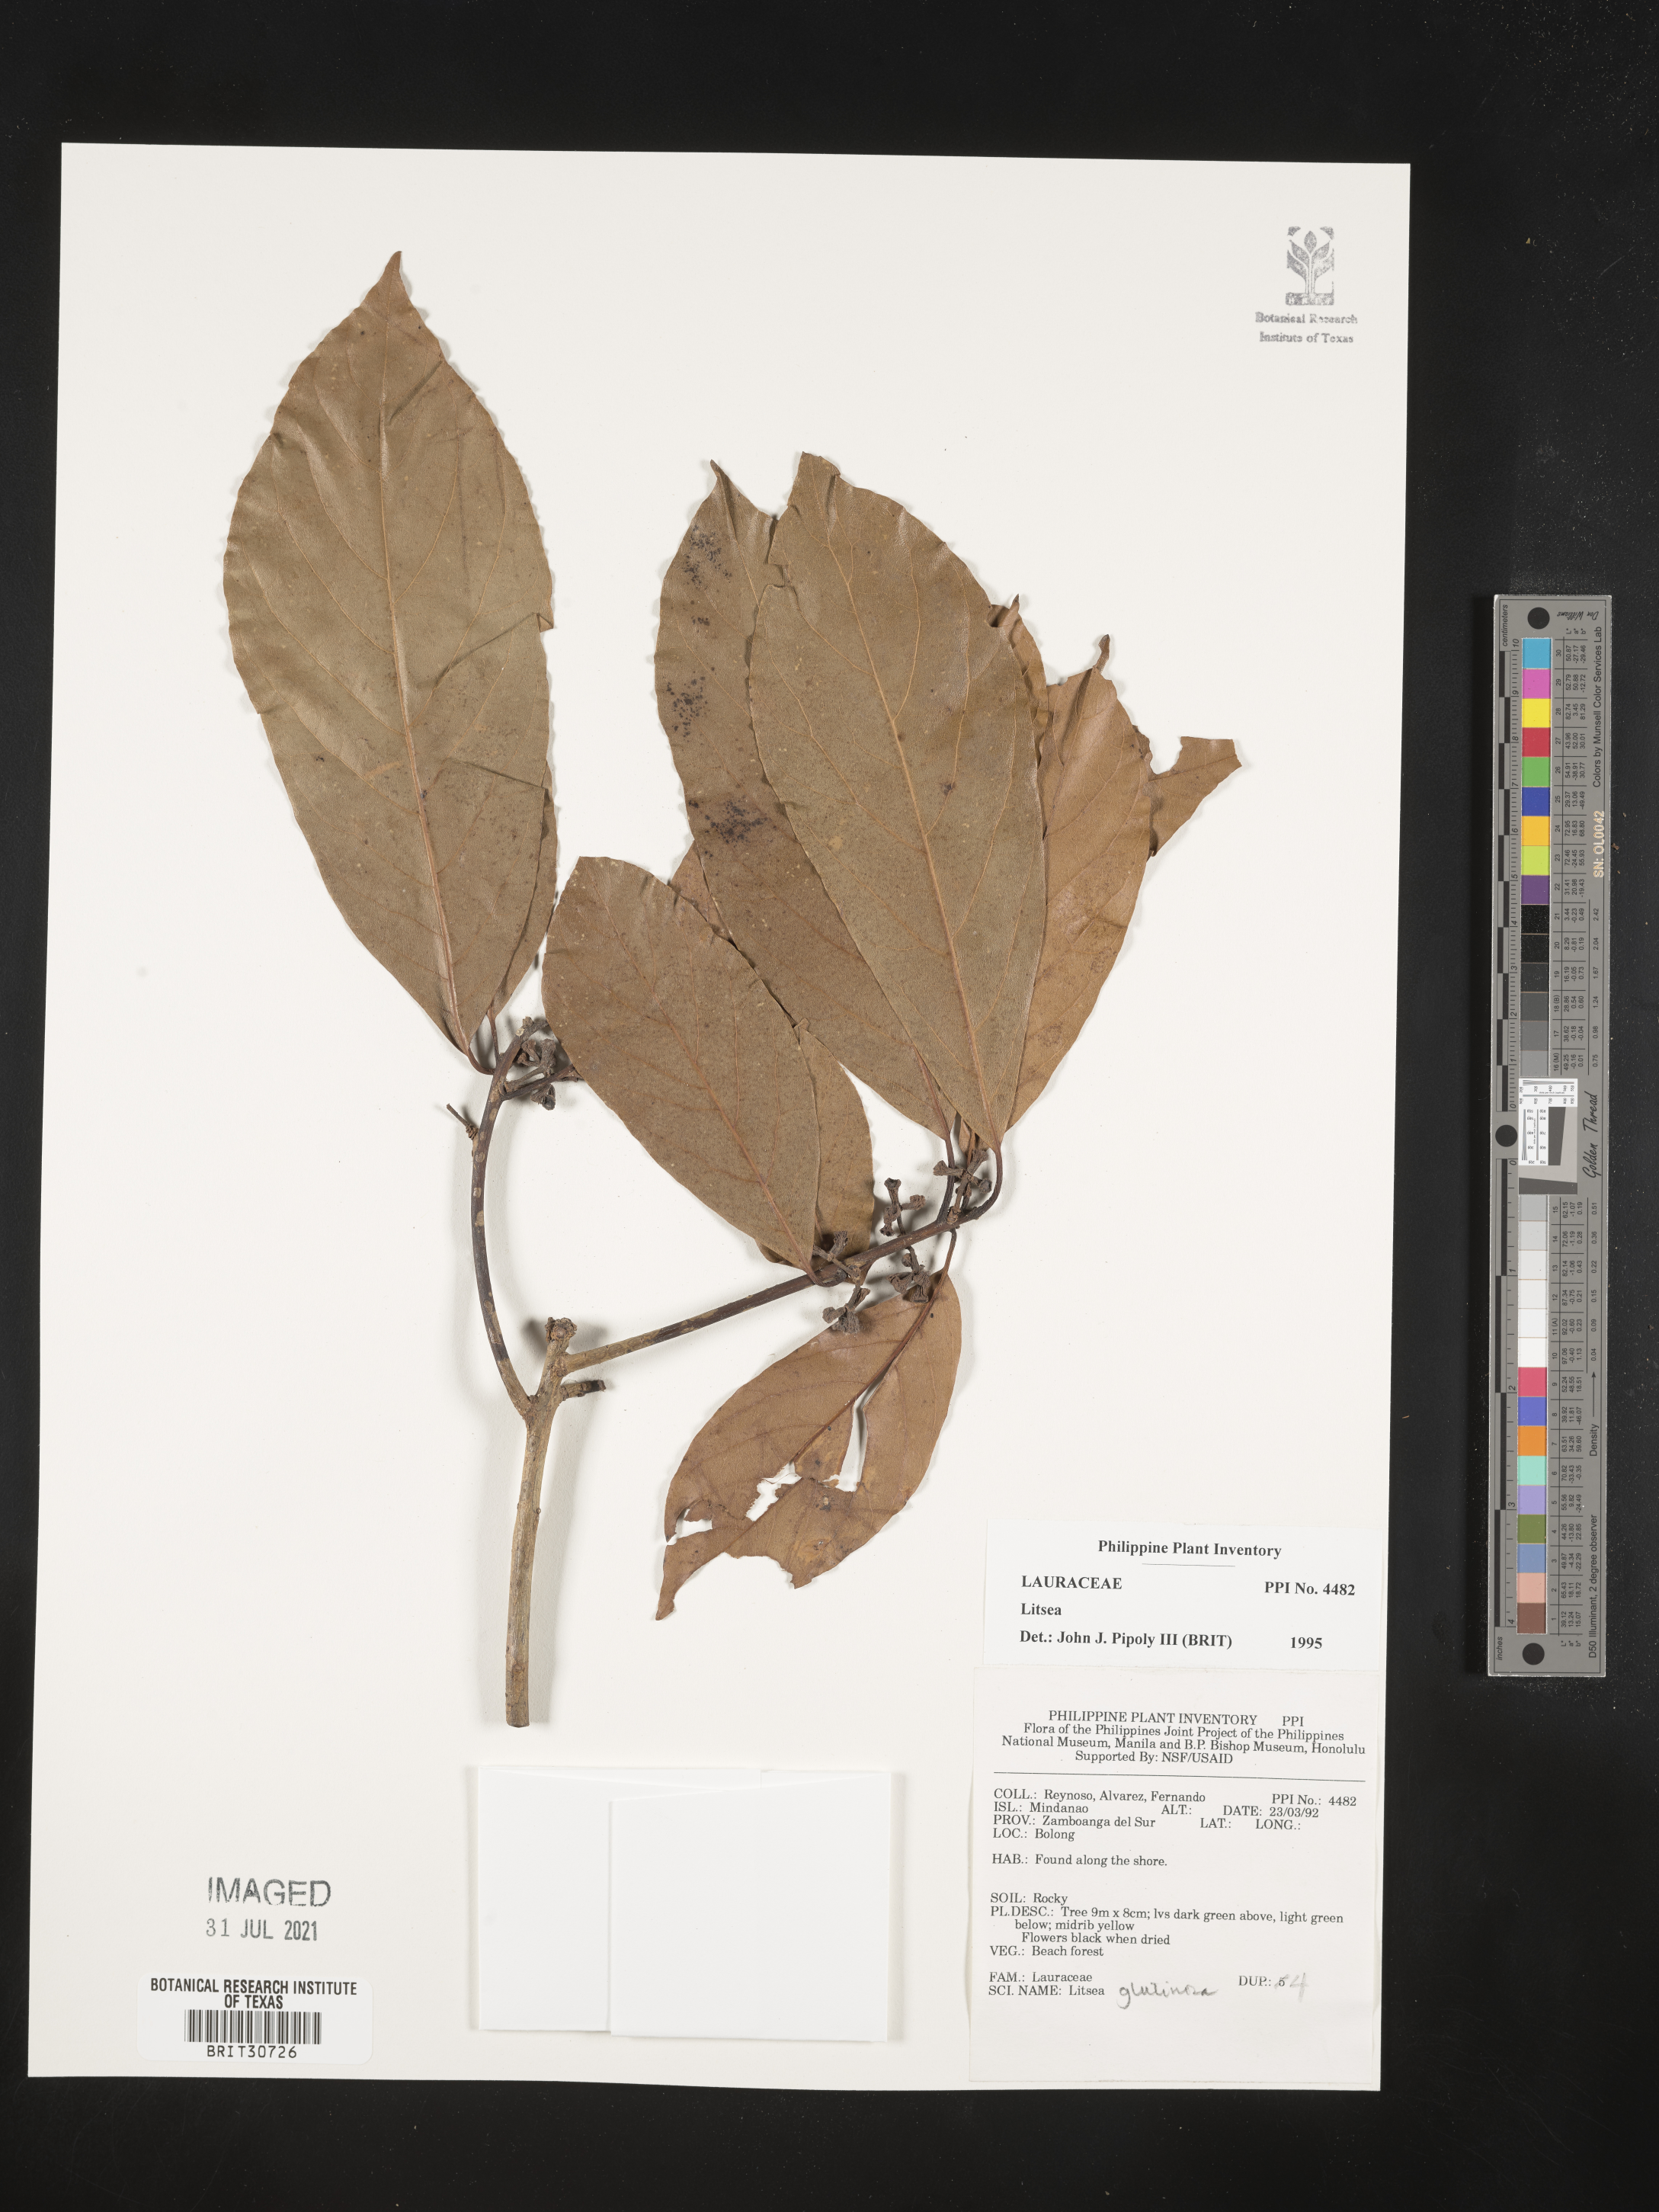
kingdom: Plantae
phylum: Tracheophyta
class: Magnoliopsida
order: Laurales
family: Lauraceae
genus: Litsea
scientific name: Litsea
